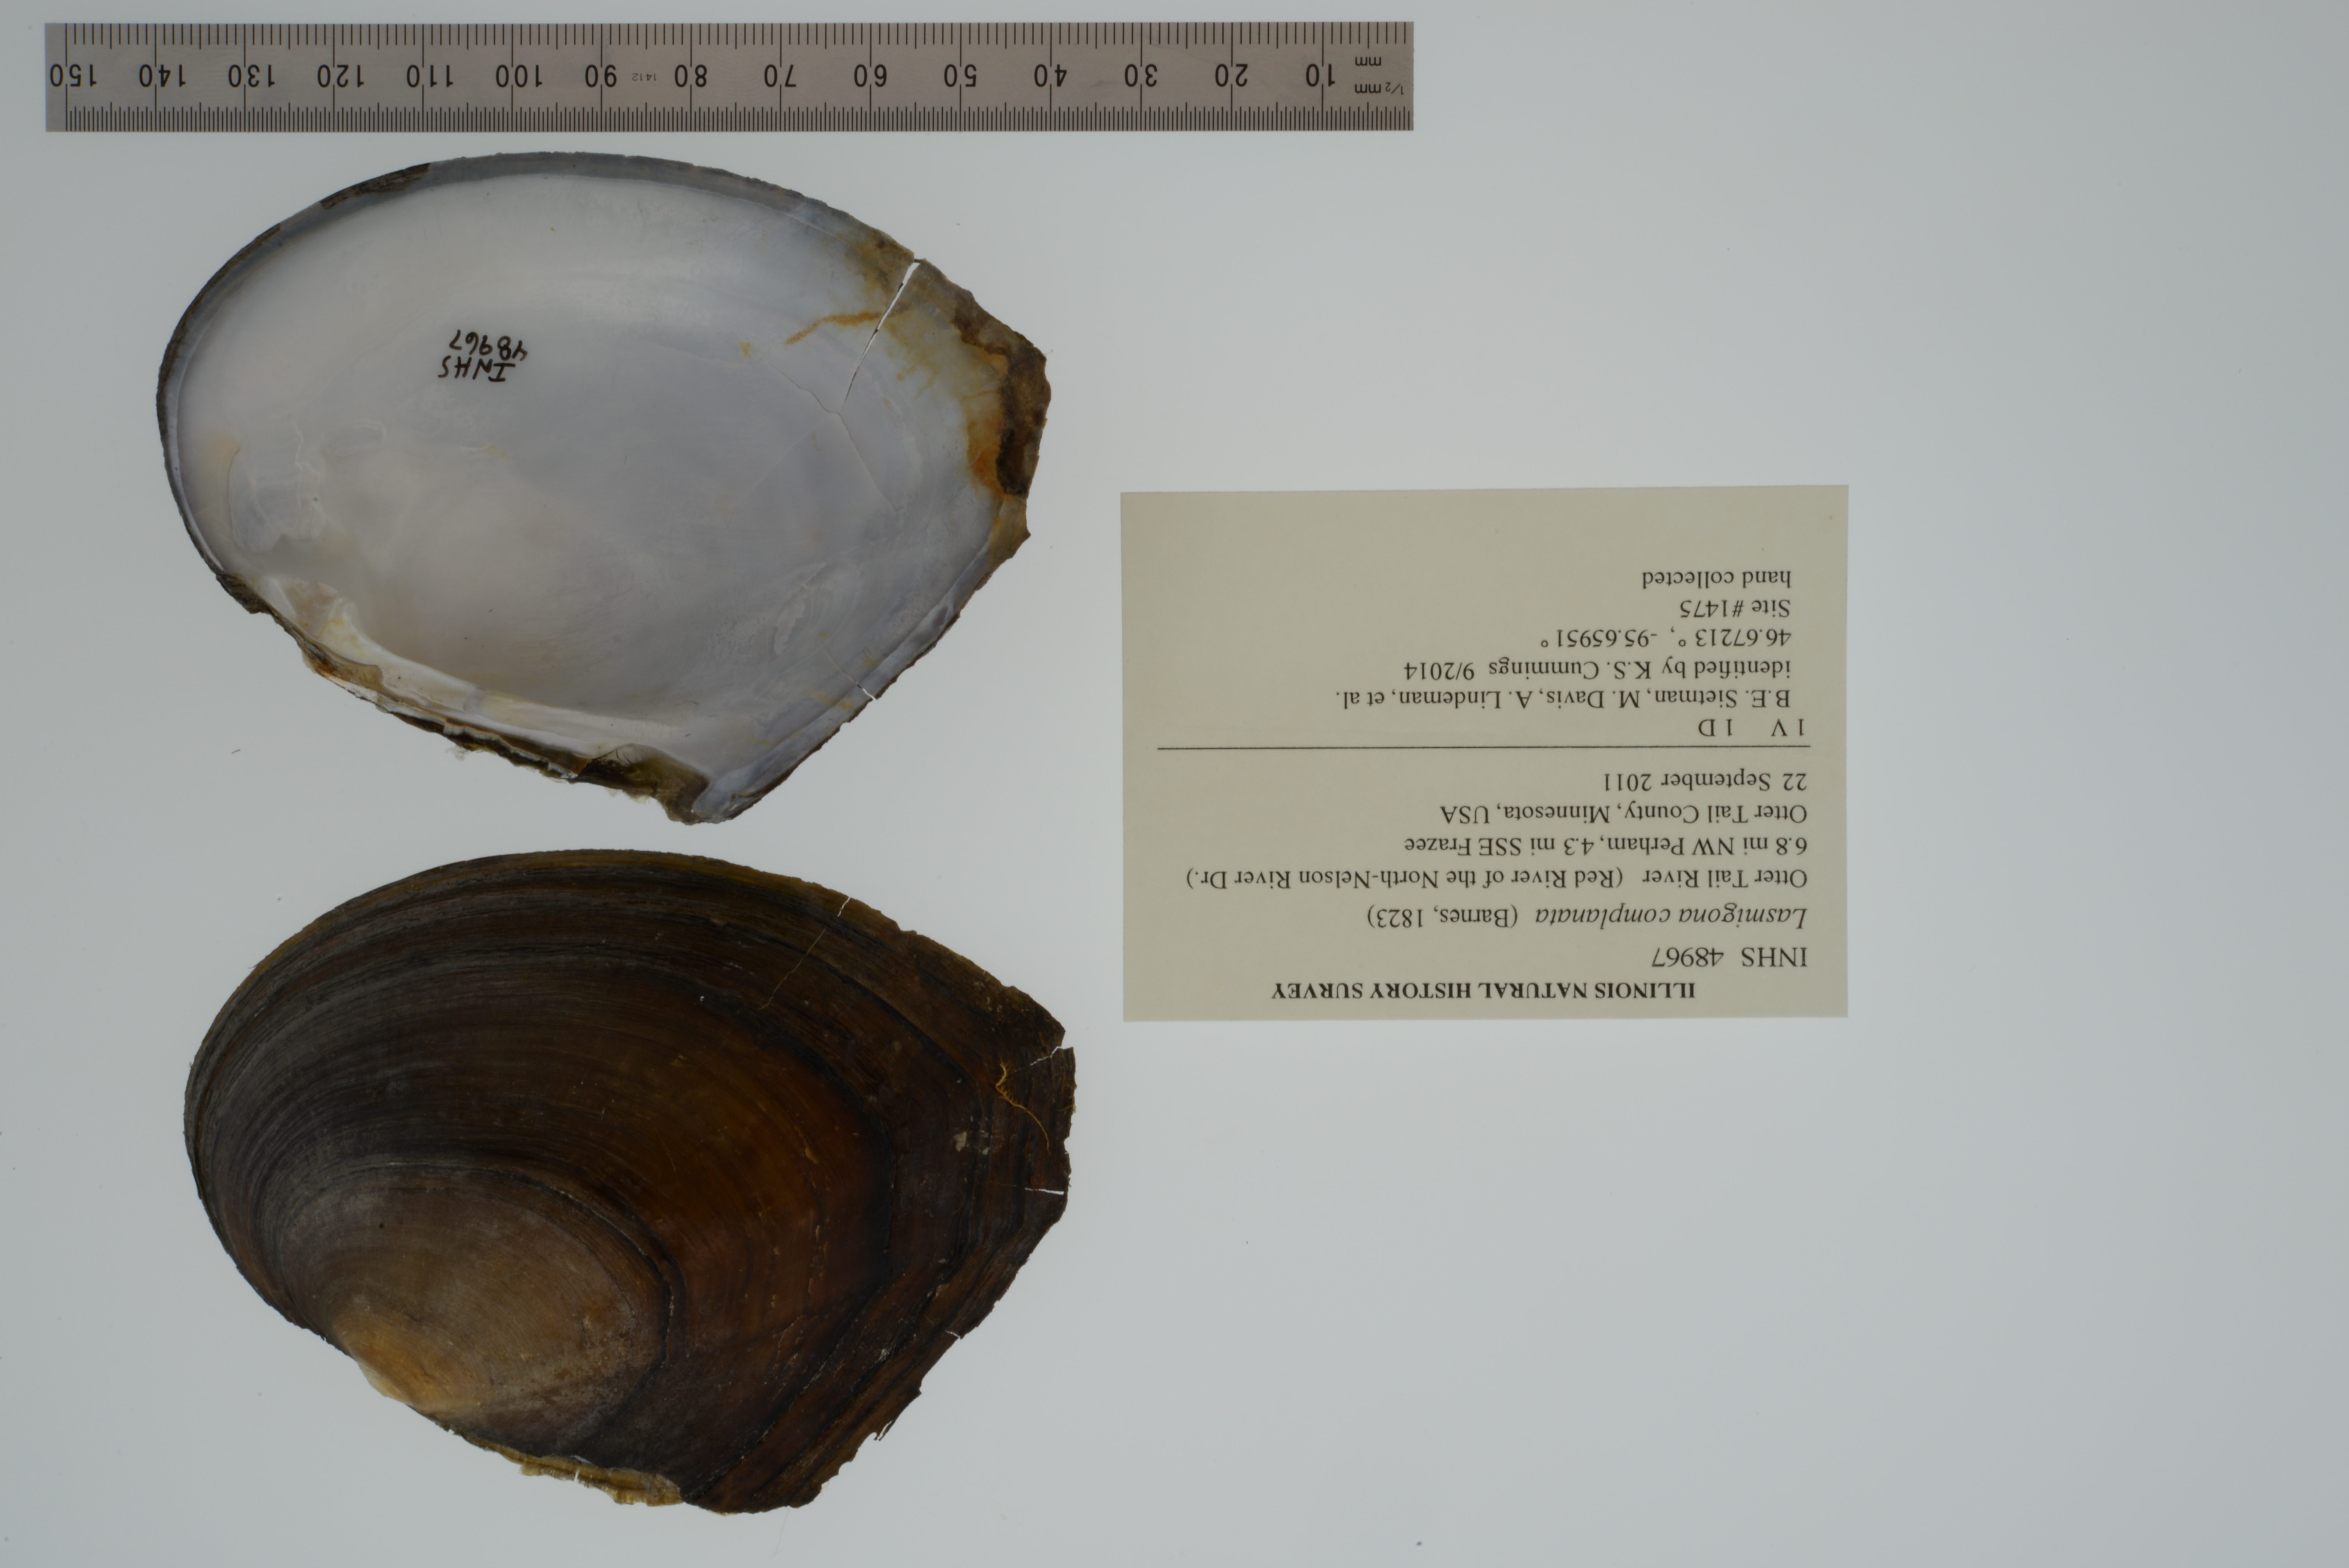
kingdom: Animalia
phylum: Mollusca
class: Bivalvia
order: Unionida
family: Unionidae
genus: Lasmigona
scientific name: Lasmigona complanata
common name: White heelsplitter
